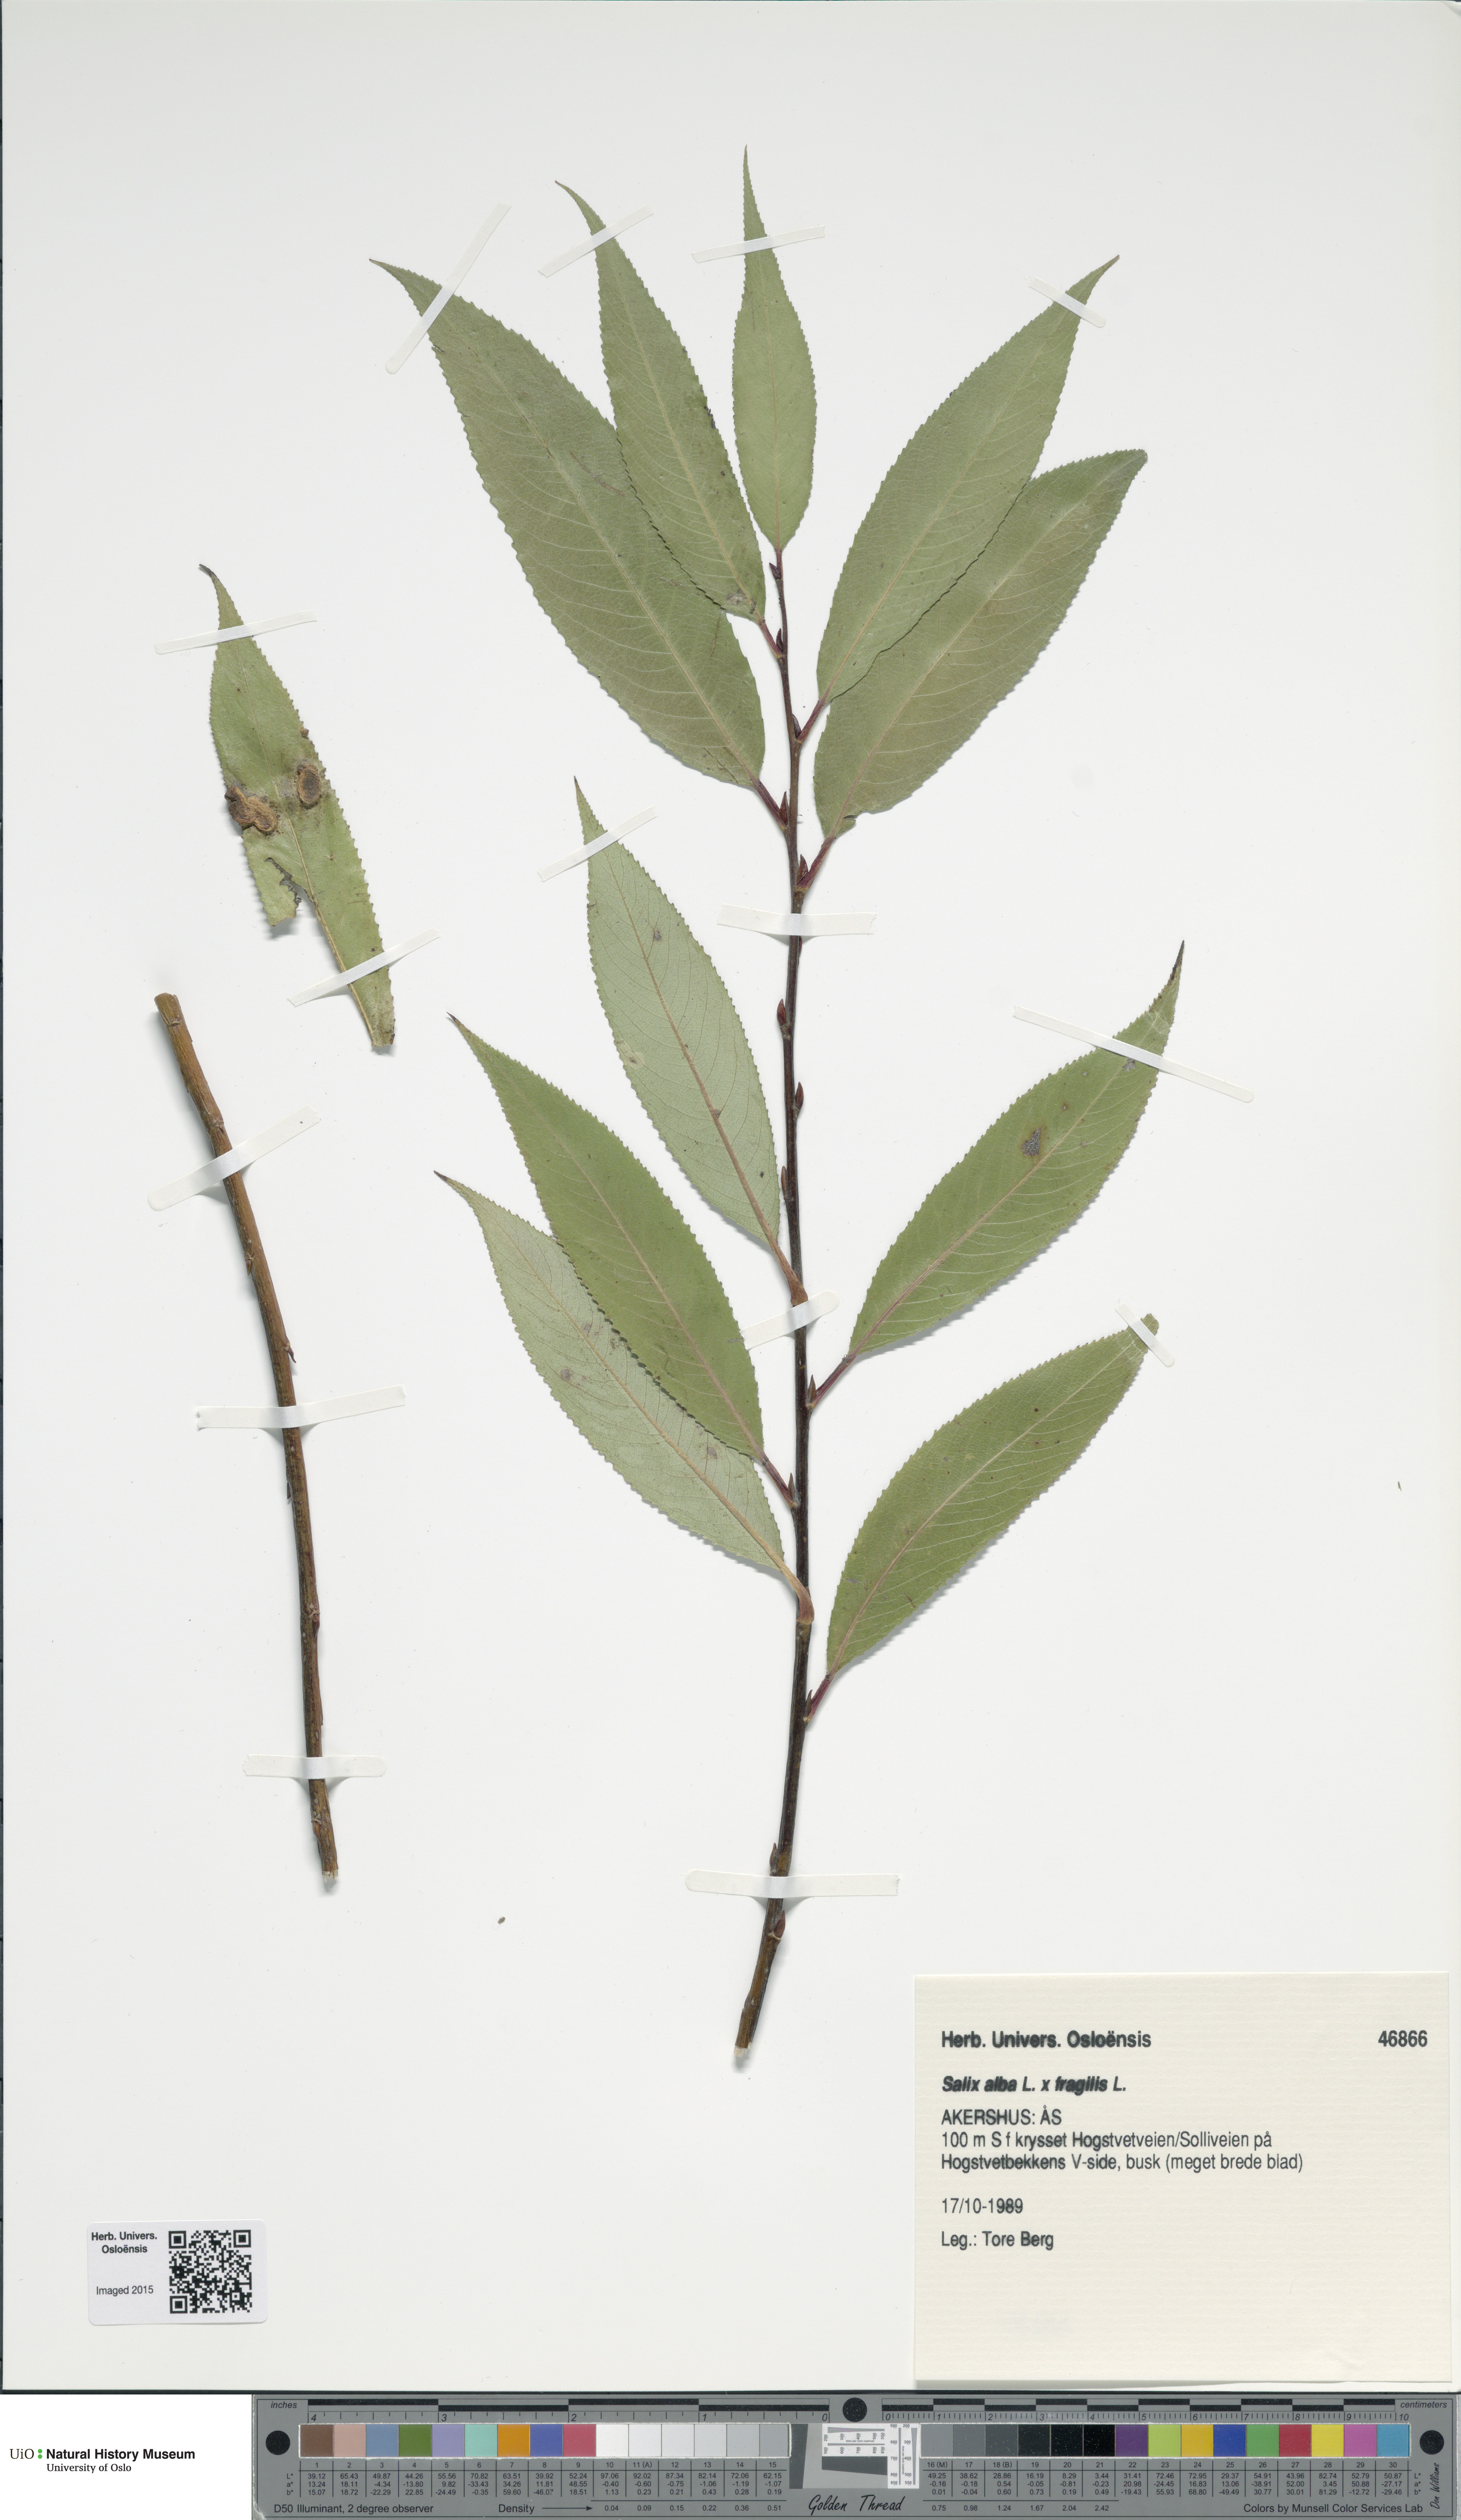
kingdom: Plantae
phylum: Tracheophyta
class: Magnoliopsida
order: Malpighiales
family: Salicaceae
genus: Salix
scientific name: Salix
